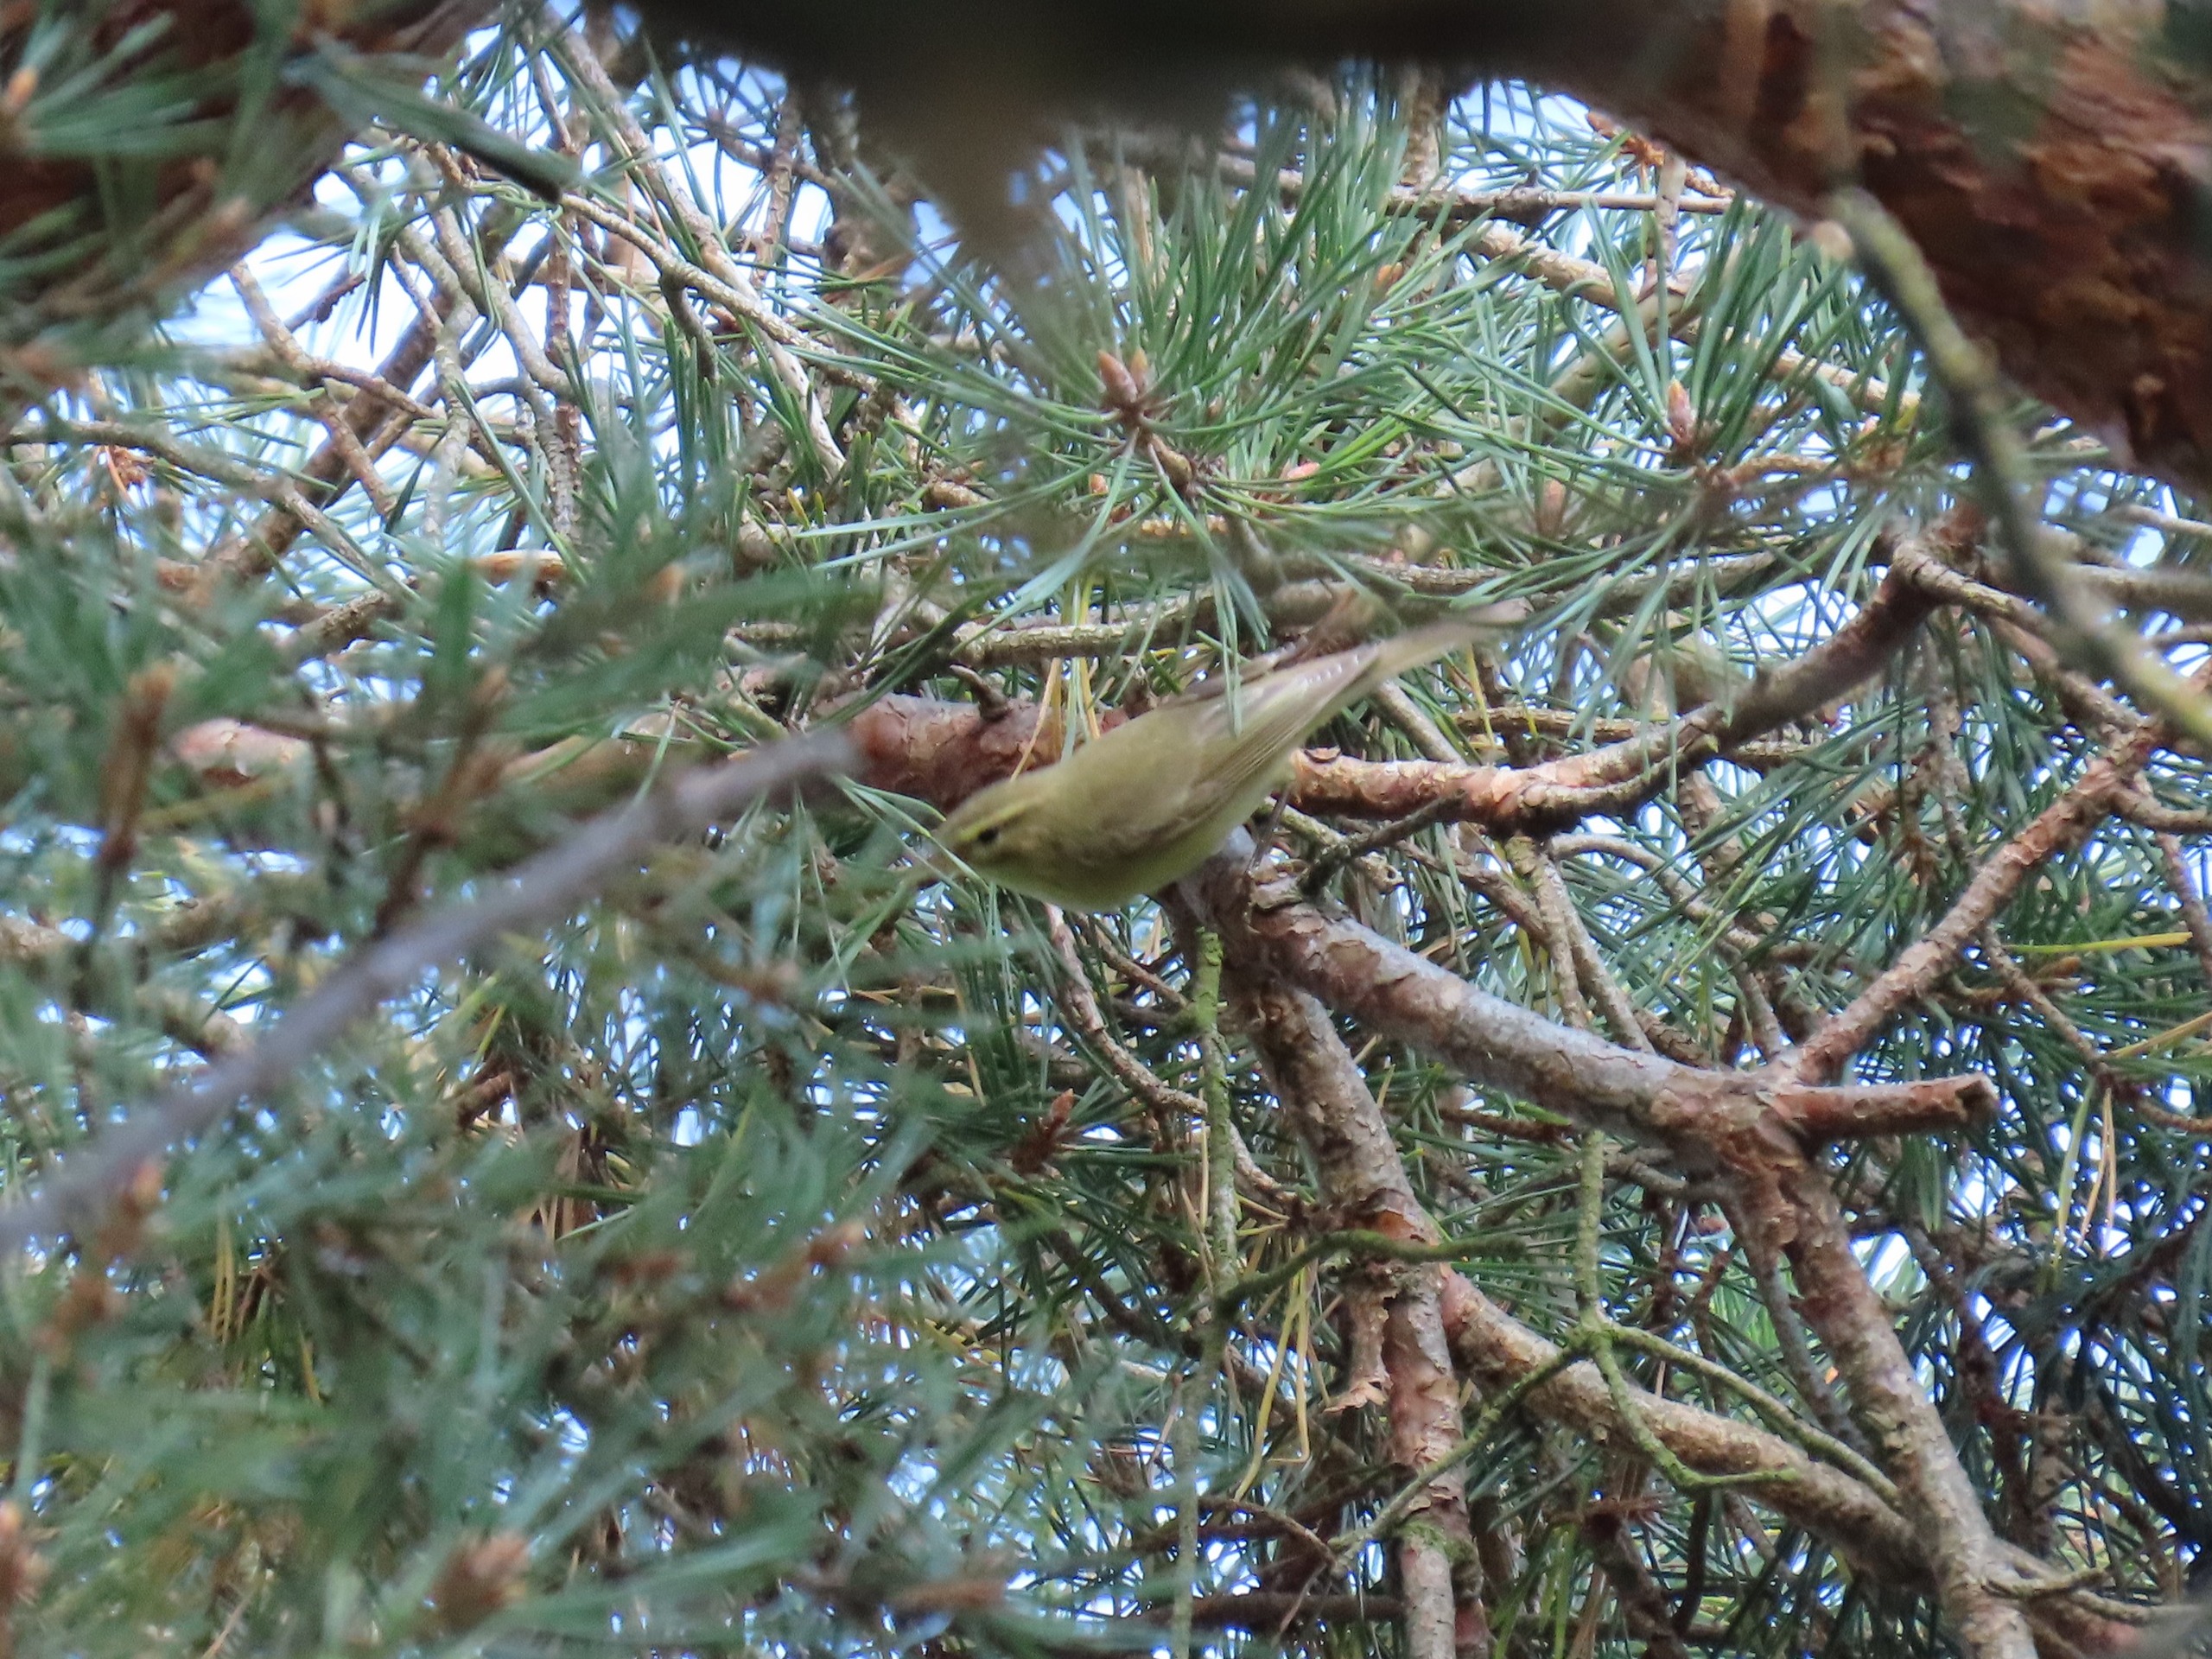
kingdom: Animalia
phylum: Chordata
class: Aves
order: Passeriformes
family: Phylloscopidae
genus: Phylloscopus
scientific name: Phylloscopus trochilus
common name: Løvsanger
